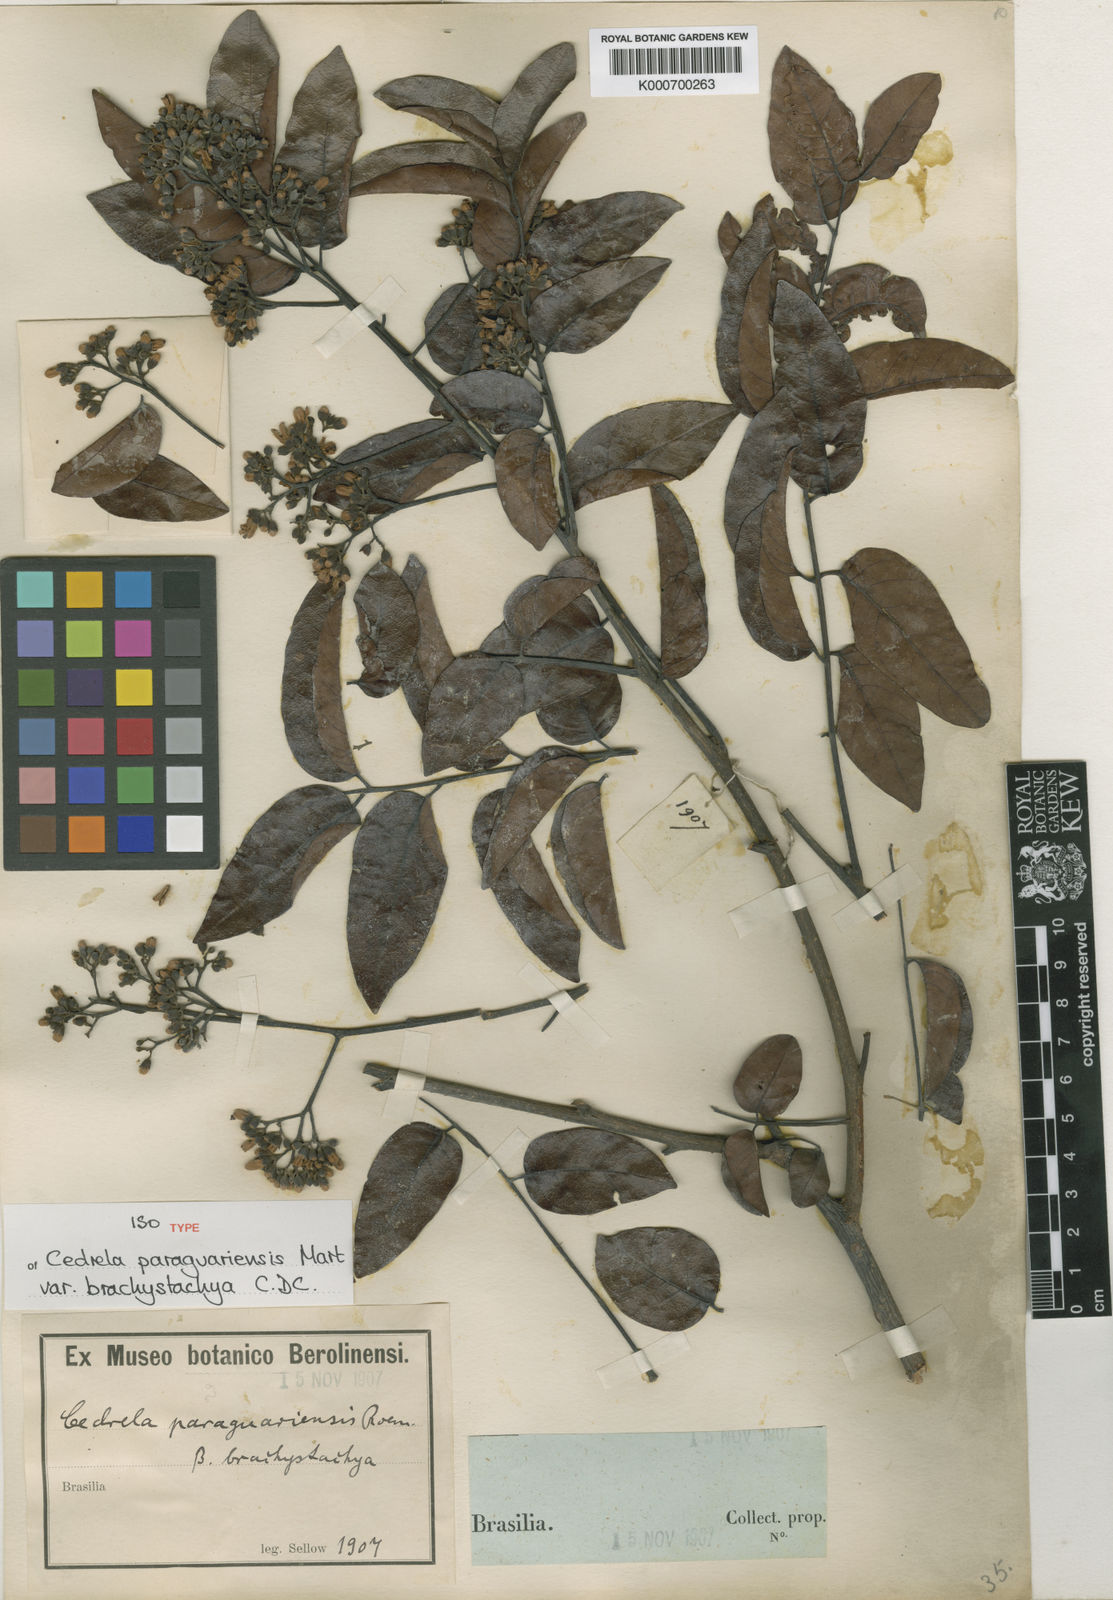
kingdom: Plantae
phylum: Tracheophyta
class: Magnoliopsida
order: Sapindales
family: Meliaceae
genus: Cedrela
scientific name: Cedrela odorata
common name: Red cedar
